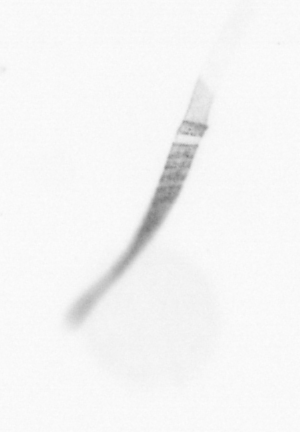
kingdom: Chromista
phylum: Ochrophyta
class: Bacillariophyceae
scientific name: Bacillariophyceae
